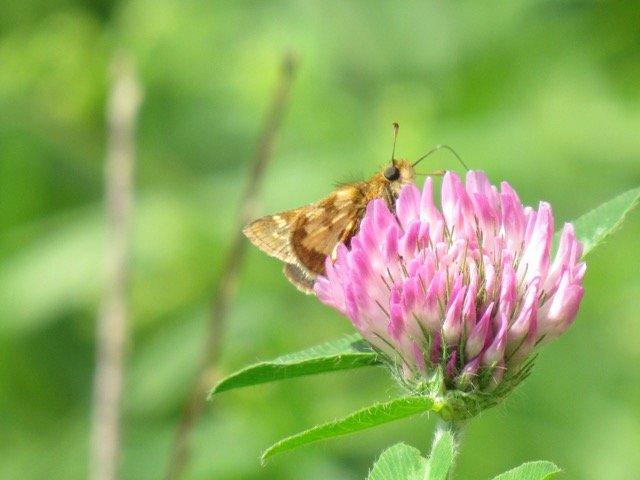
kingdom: Animalia
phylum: Arthropoda
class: Insecta
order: Lepidoptera
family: Hesperiidae
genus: Polites
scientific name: Polites coras
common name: Peck's Skipper
